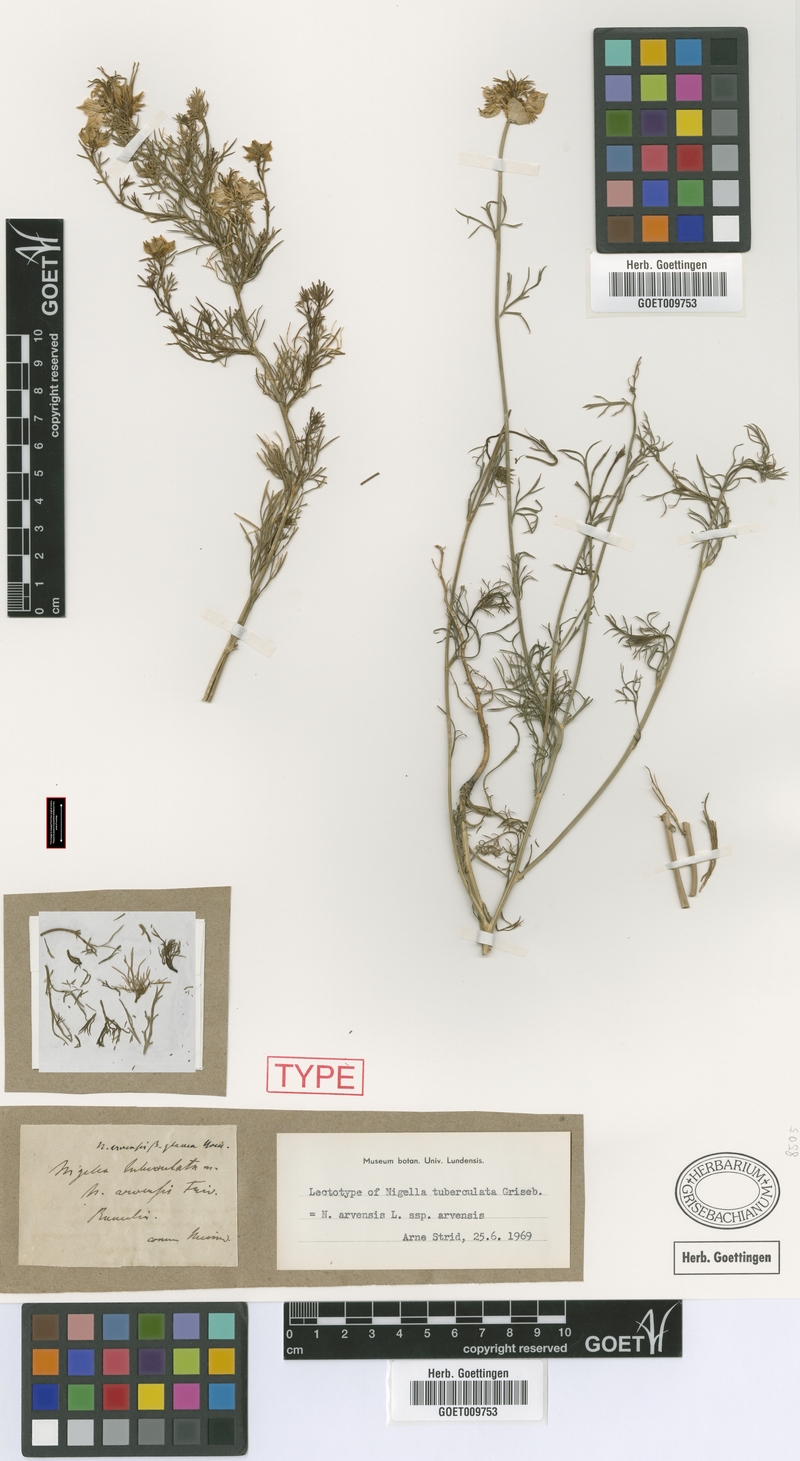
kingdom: Plantae
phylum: Tracheophyta
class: Magnoliopsida
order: Ranunculales
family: Ranunculaceae
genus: Nigella
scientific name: Nigella arvensis
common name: Wild fennel-flower
